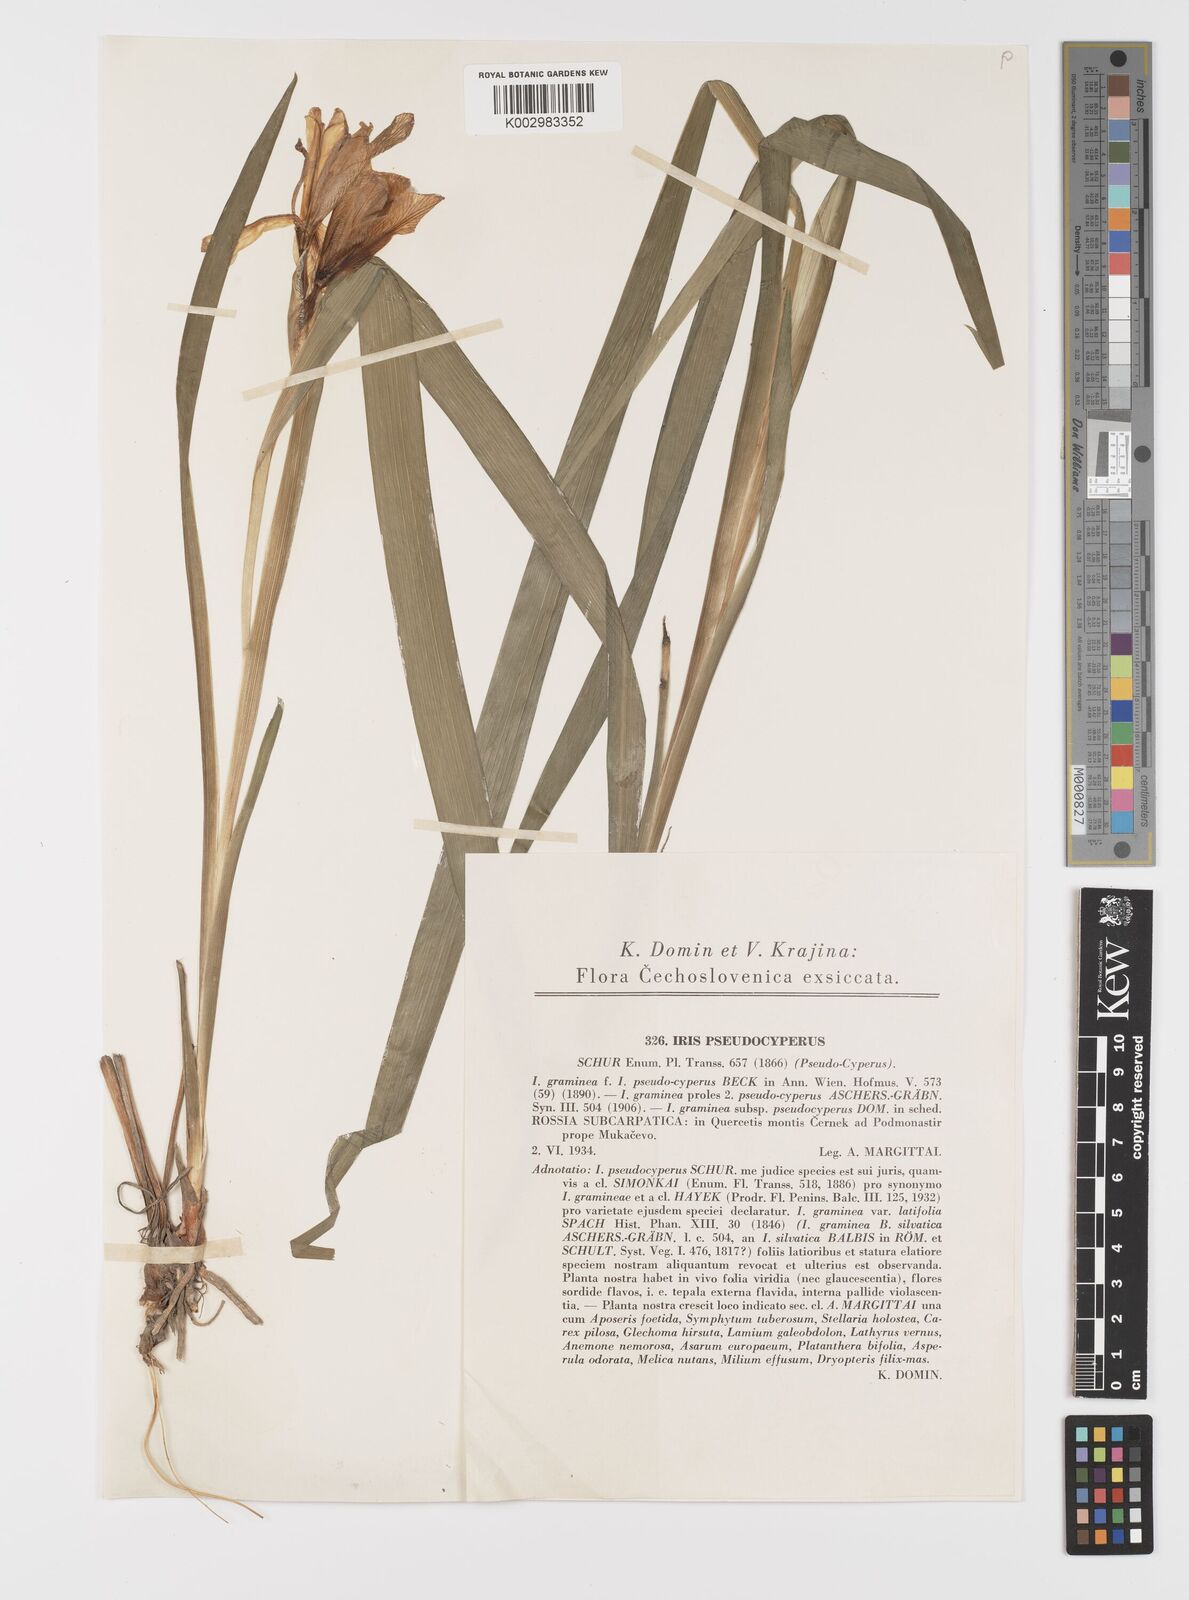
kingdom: Plantae
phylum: Tracheophyta
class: Liliopsida
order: Asparagales
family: Iridaceae
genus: Iris
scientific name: Iris graminea
